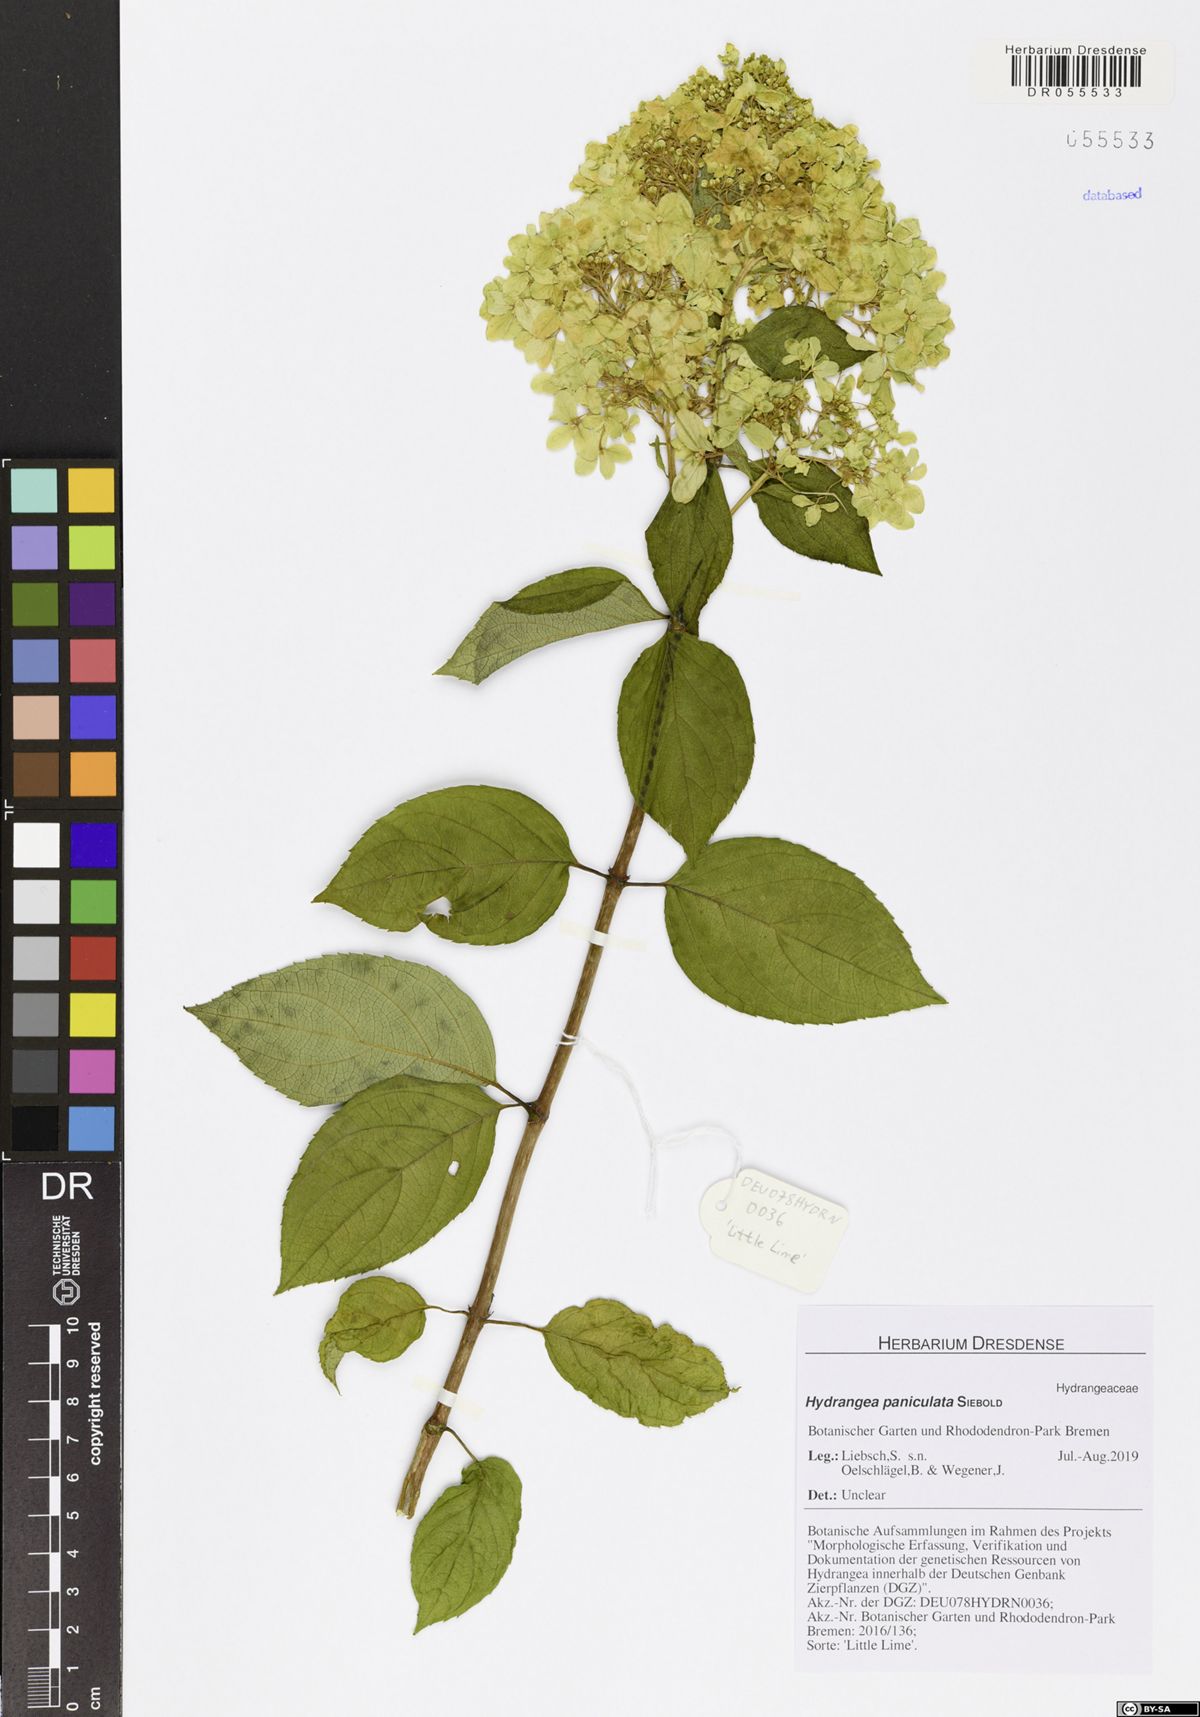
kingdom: Plantae
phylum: Tracheophyta
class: Magnoliopsida
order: Cornales
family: Hydrangeaceae
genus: Hydrangea
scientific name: Hydrangea paniculata
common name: Panicled hydrangea
